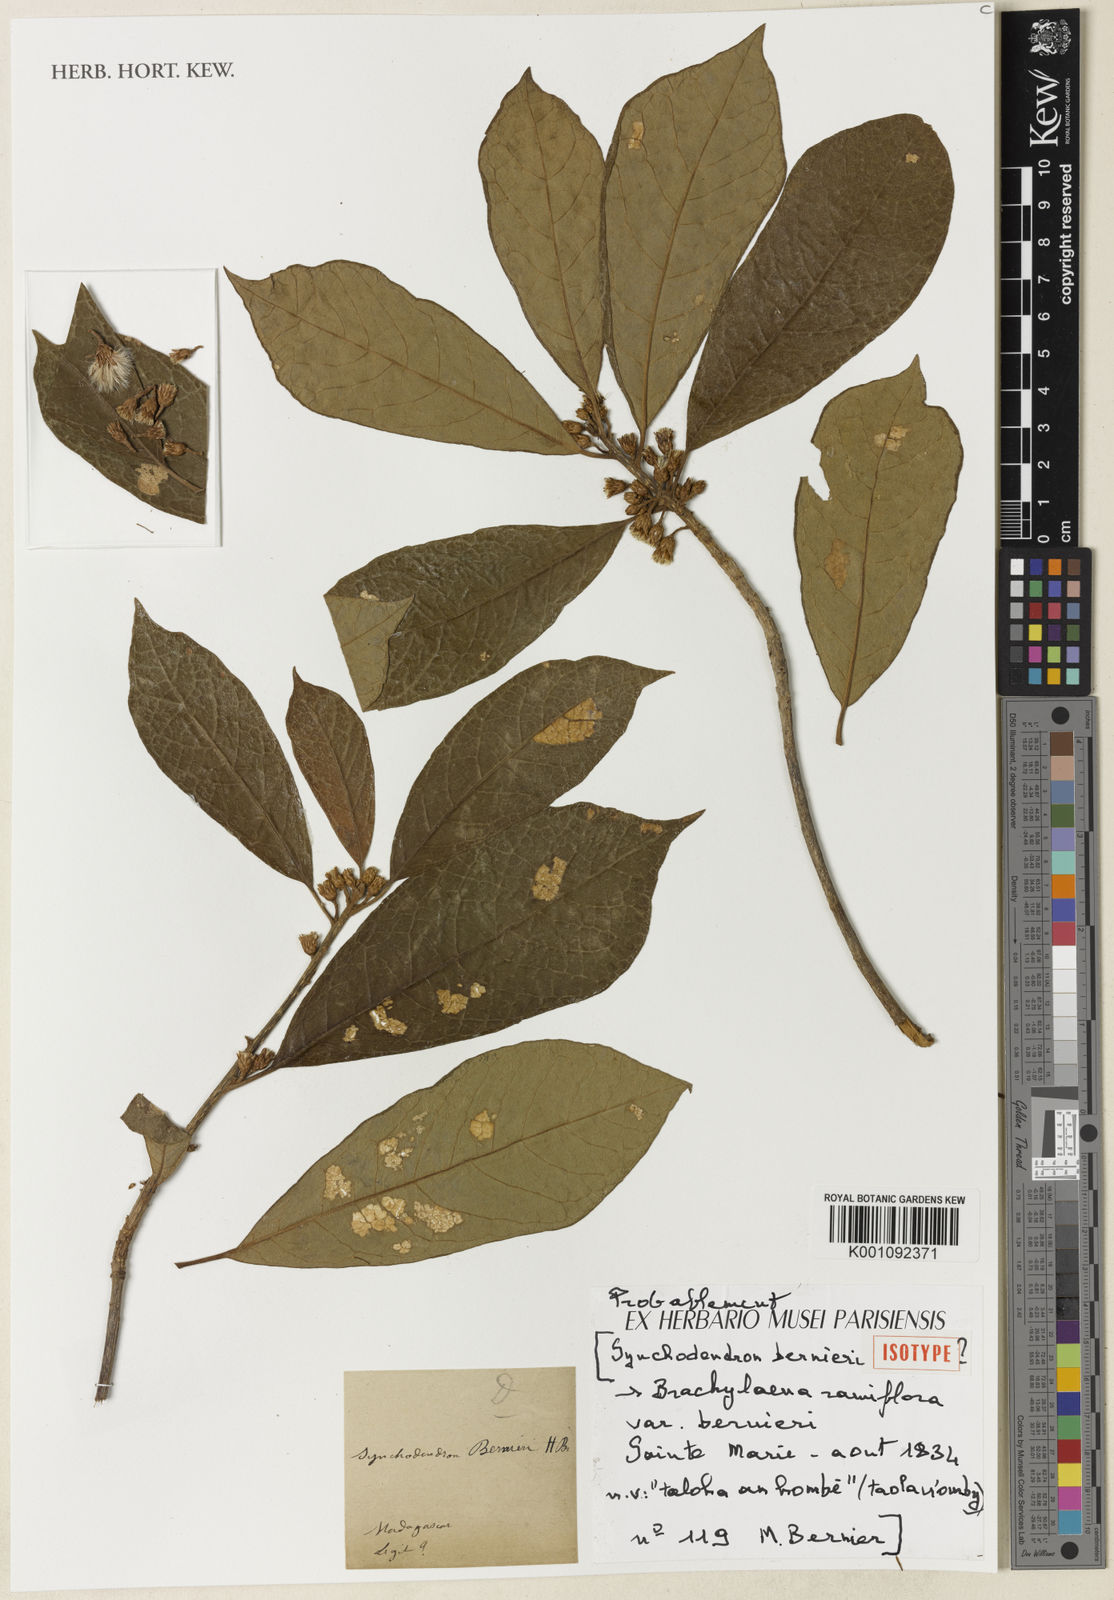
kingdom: Plantae
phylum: Tracheophyta
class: Magnoliopsida
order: Asterales
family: Asteraceae
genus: Brachylaena
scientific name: Brachylaena ramiflora
